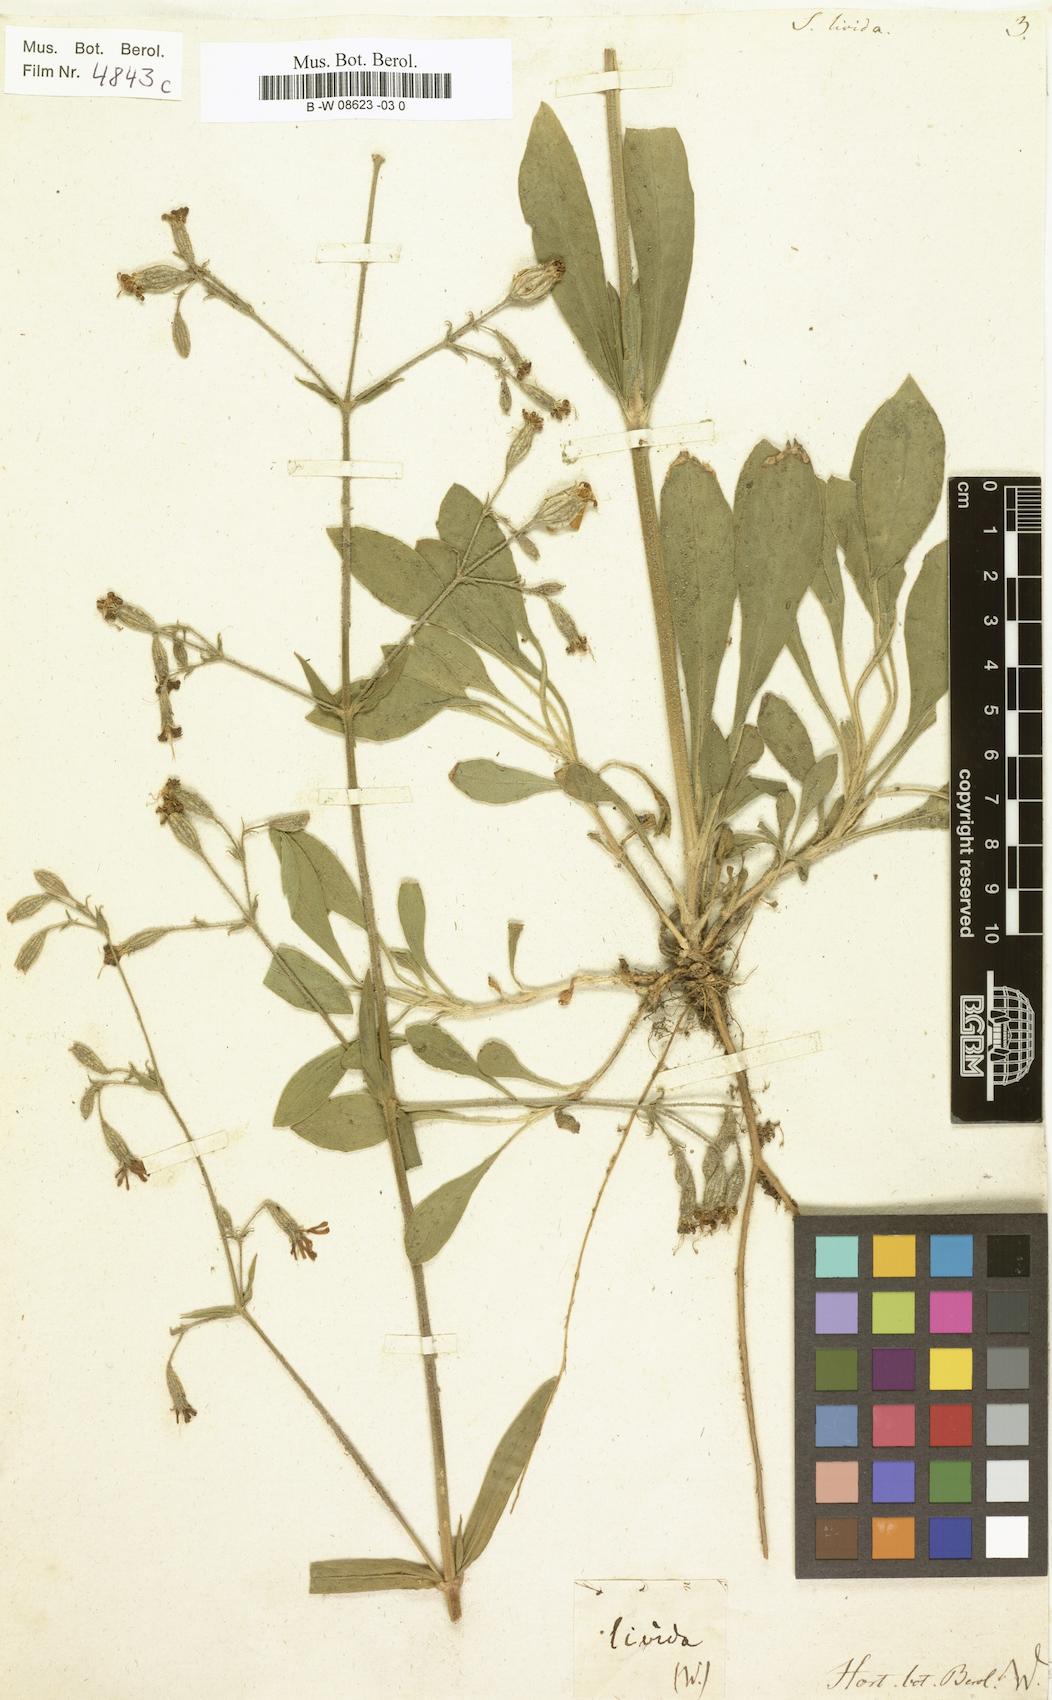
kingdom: Plantae
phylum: Tracheophyta
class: Magnoliopsida
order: Caryophyllales
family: Caryophyllaceae
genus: Silene
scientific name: Silene
